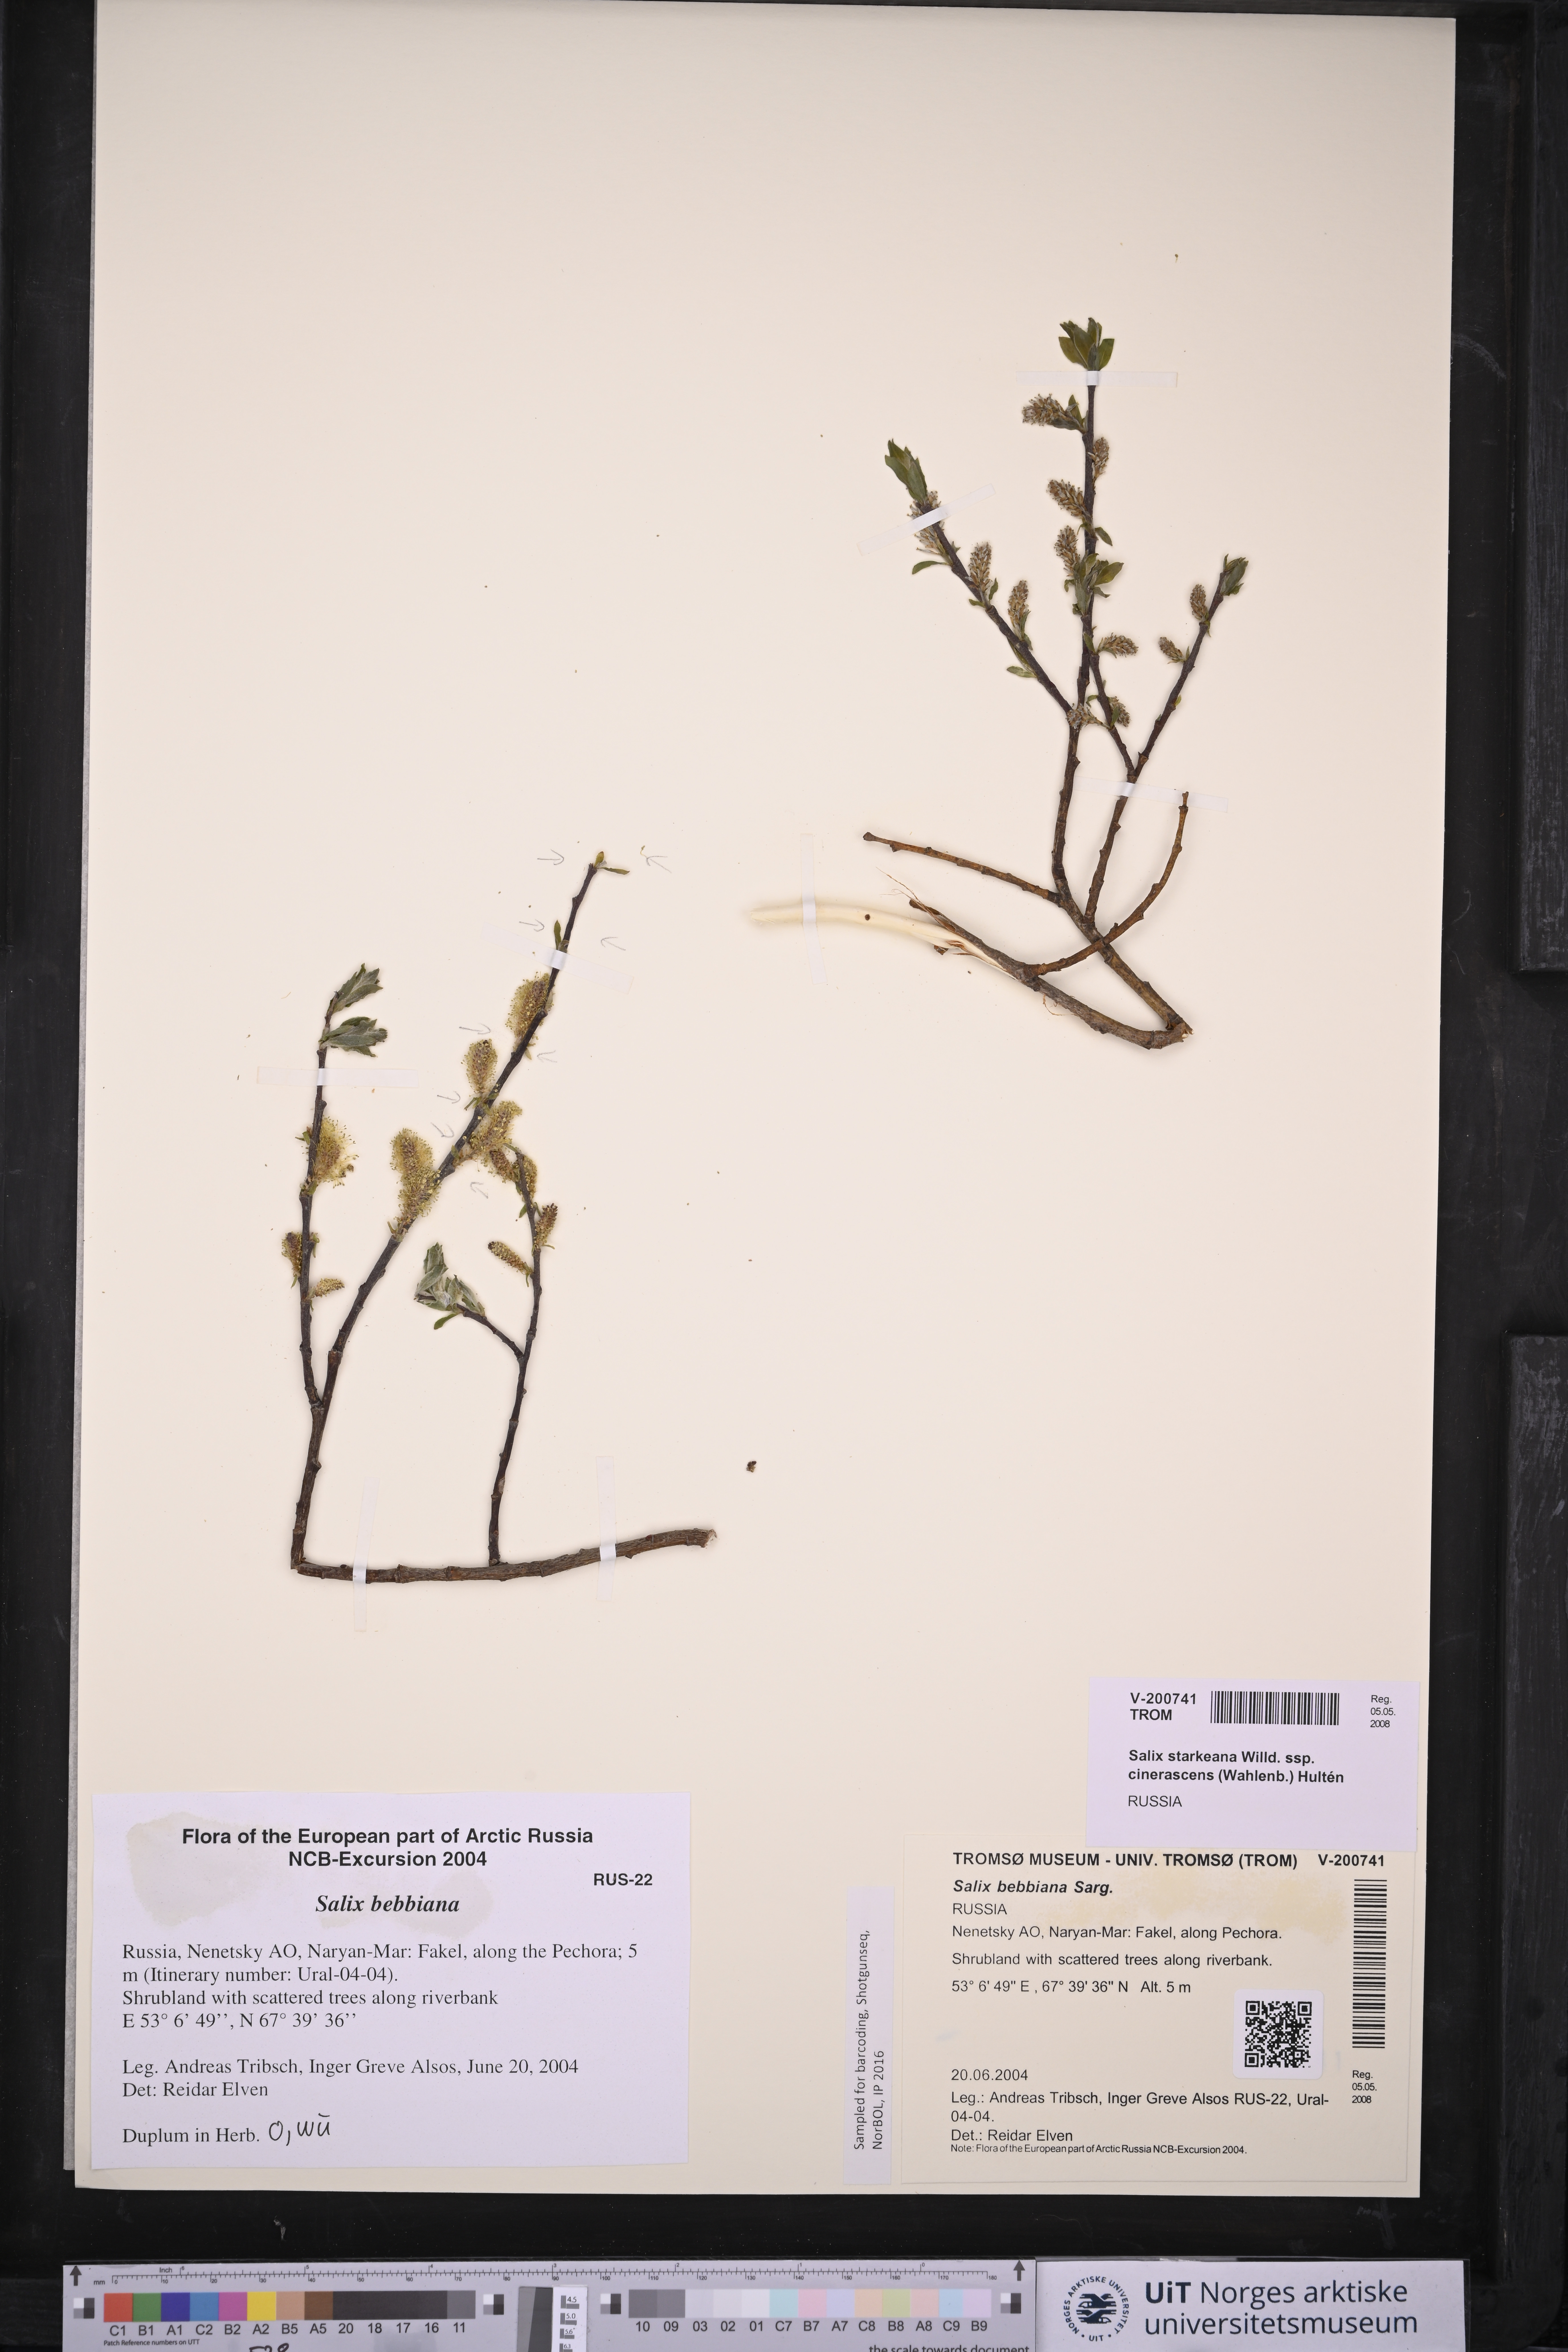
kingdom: Plantae
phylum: Tracheophyta
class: Magnoliopsida
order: Malpighiales
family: Salicaceae
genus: Salix
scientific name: Salix bebbiana
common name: Bebb's willow
